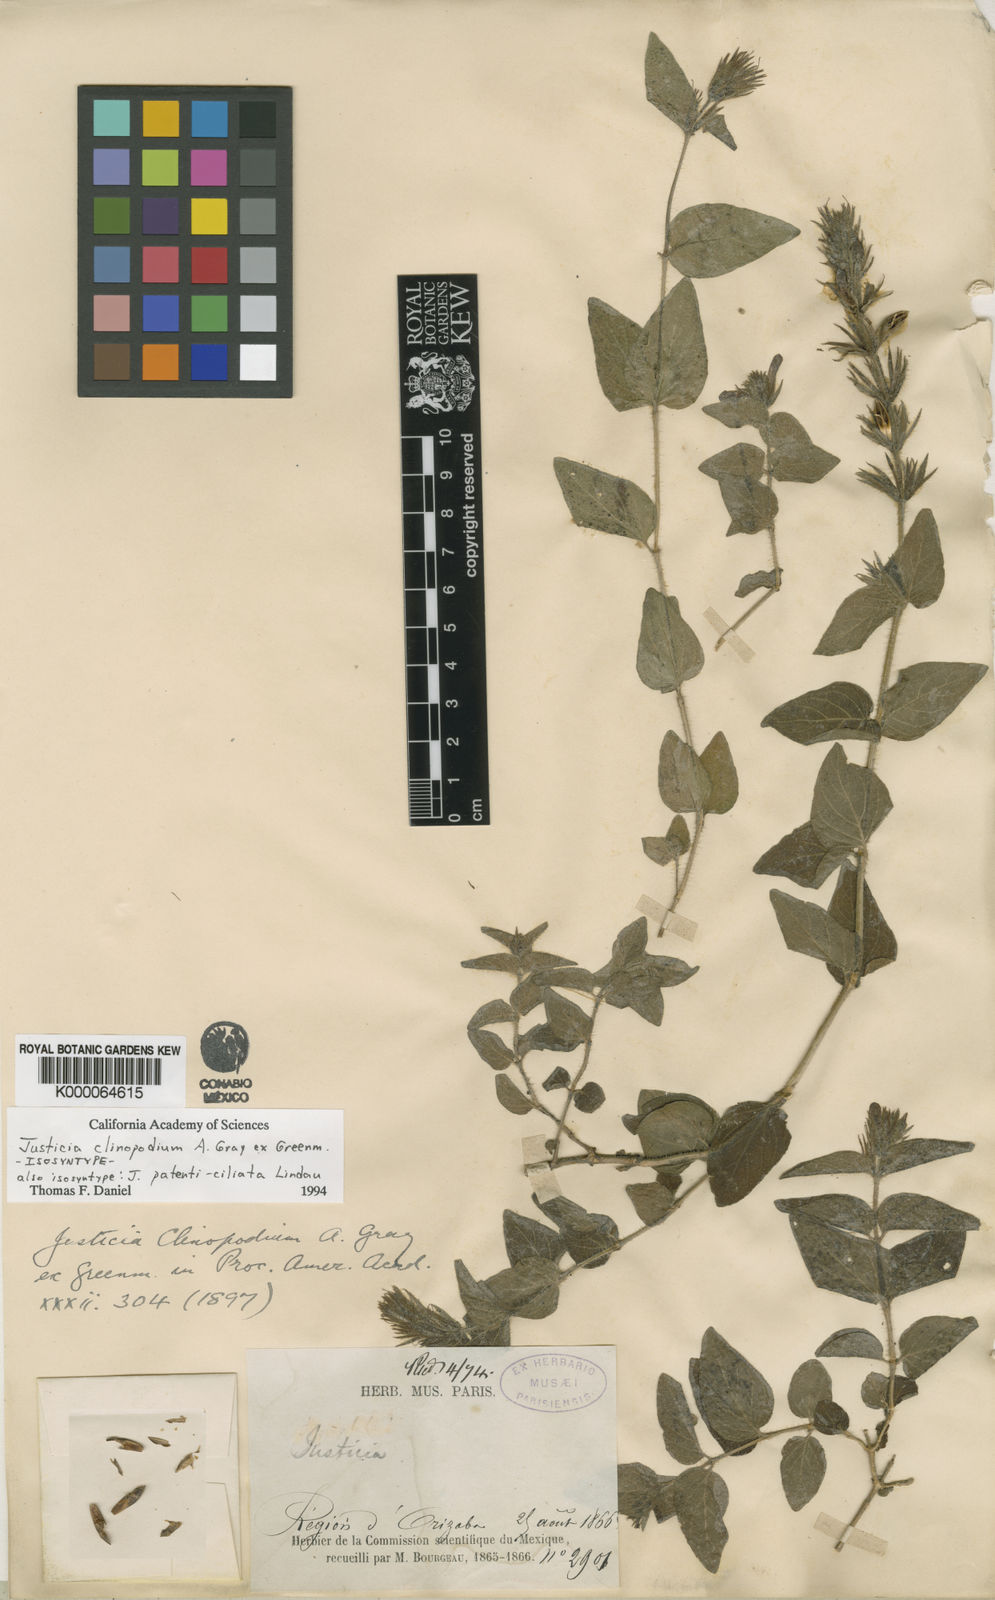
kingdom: Plantae
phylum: Tracheophyta
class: Magnoliopsida
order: Lamiales
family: Acanthaceae
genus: Justicia
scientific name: Justicia clinopodium
